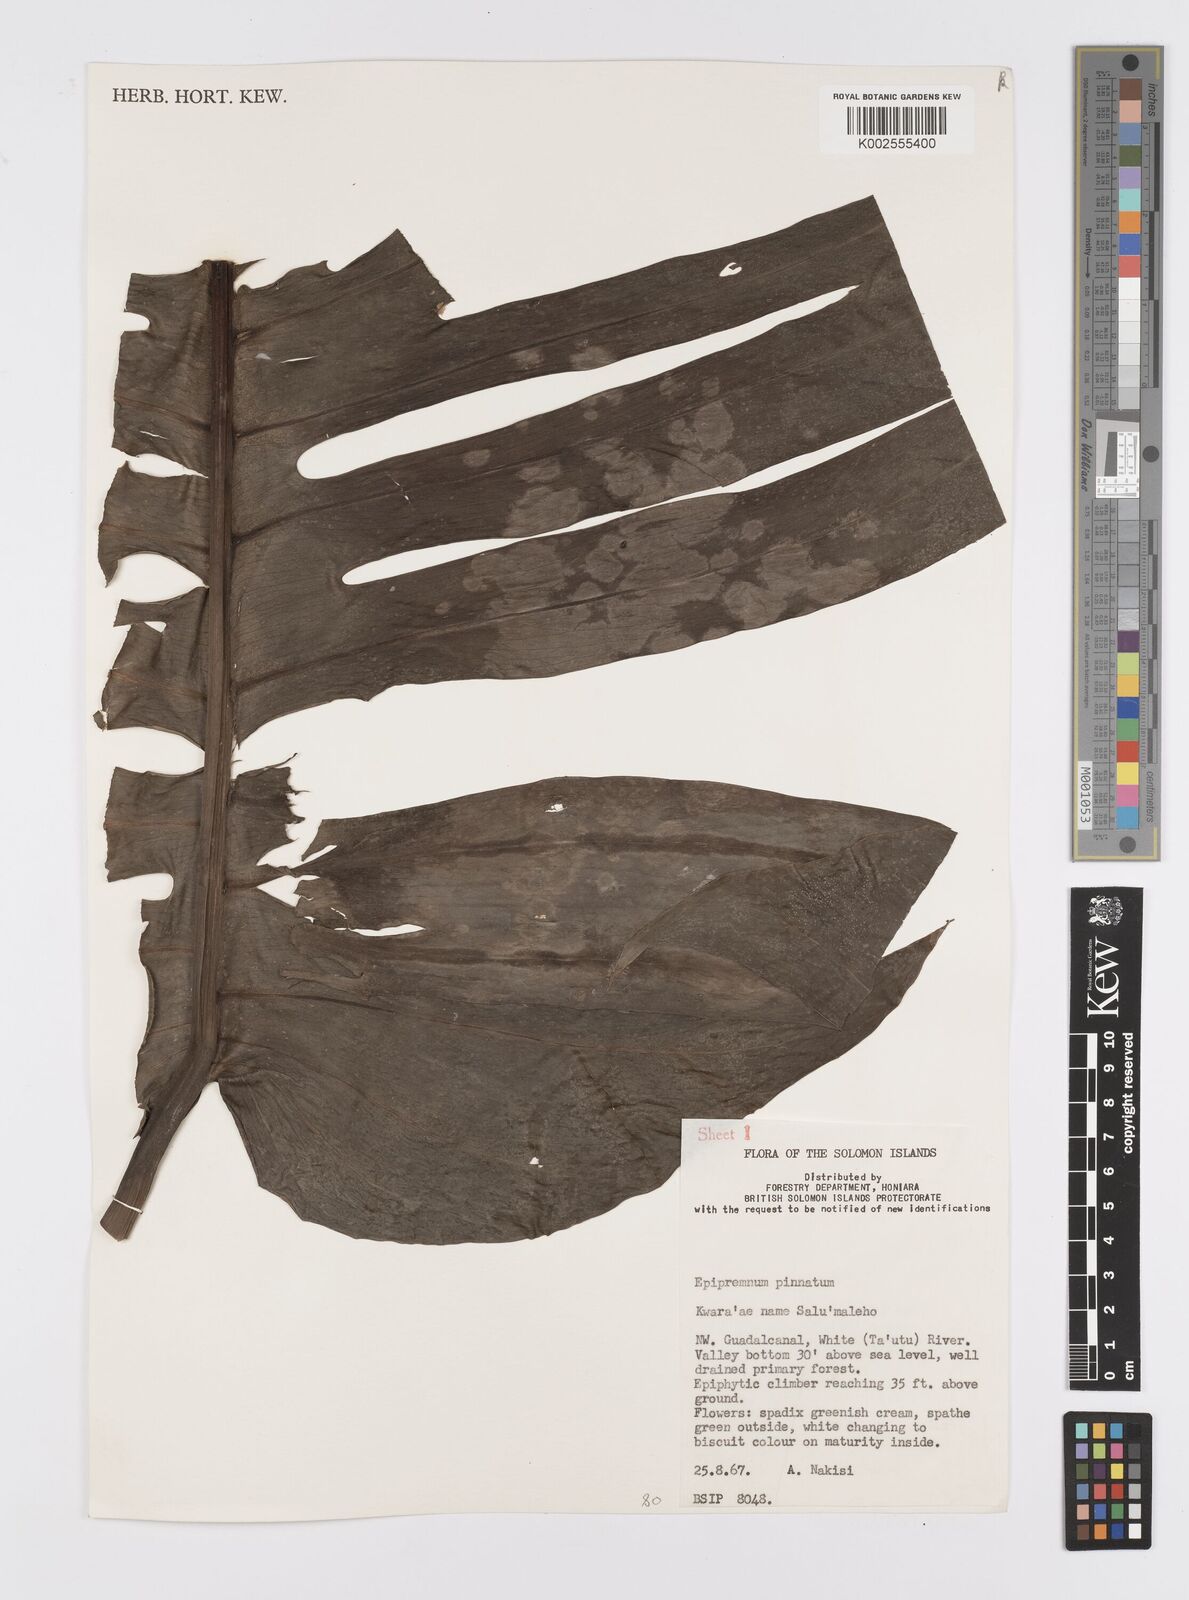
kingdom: Plantae
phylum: Tracheophyta
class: Liliopsida
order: Alismatales
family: Araceae
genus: Epipremnum
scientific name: Epipremnum pinnatum
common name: Centipede tongavine
